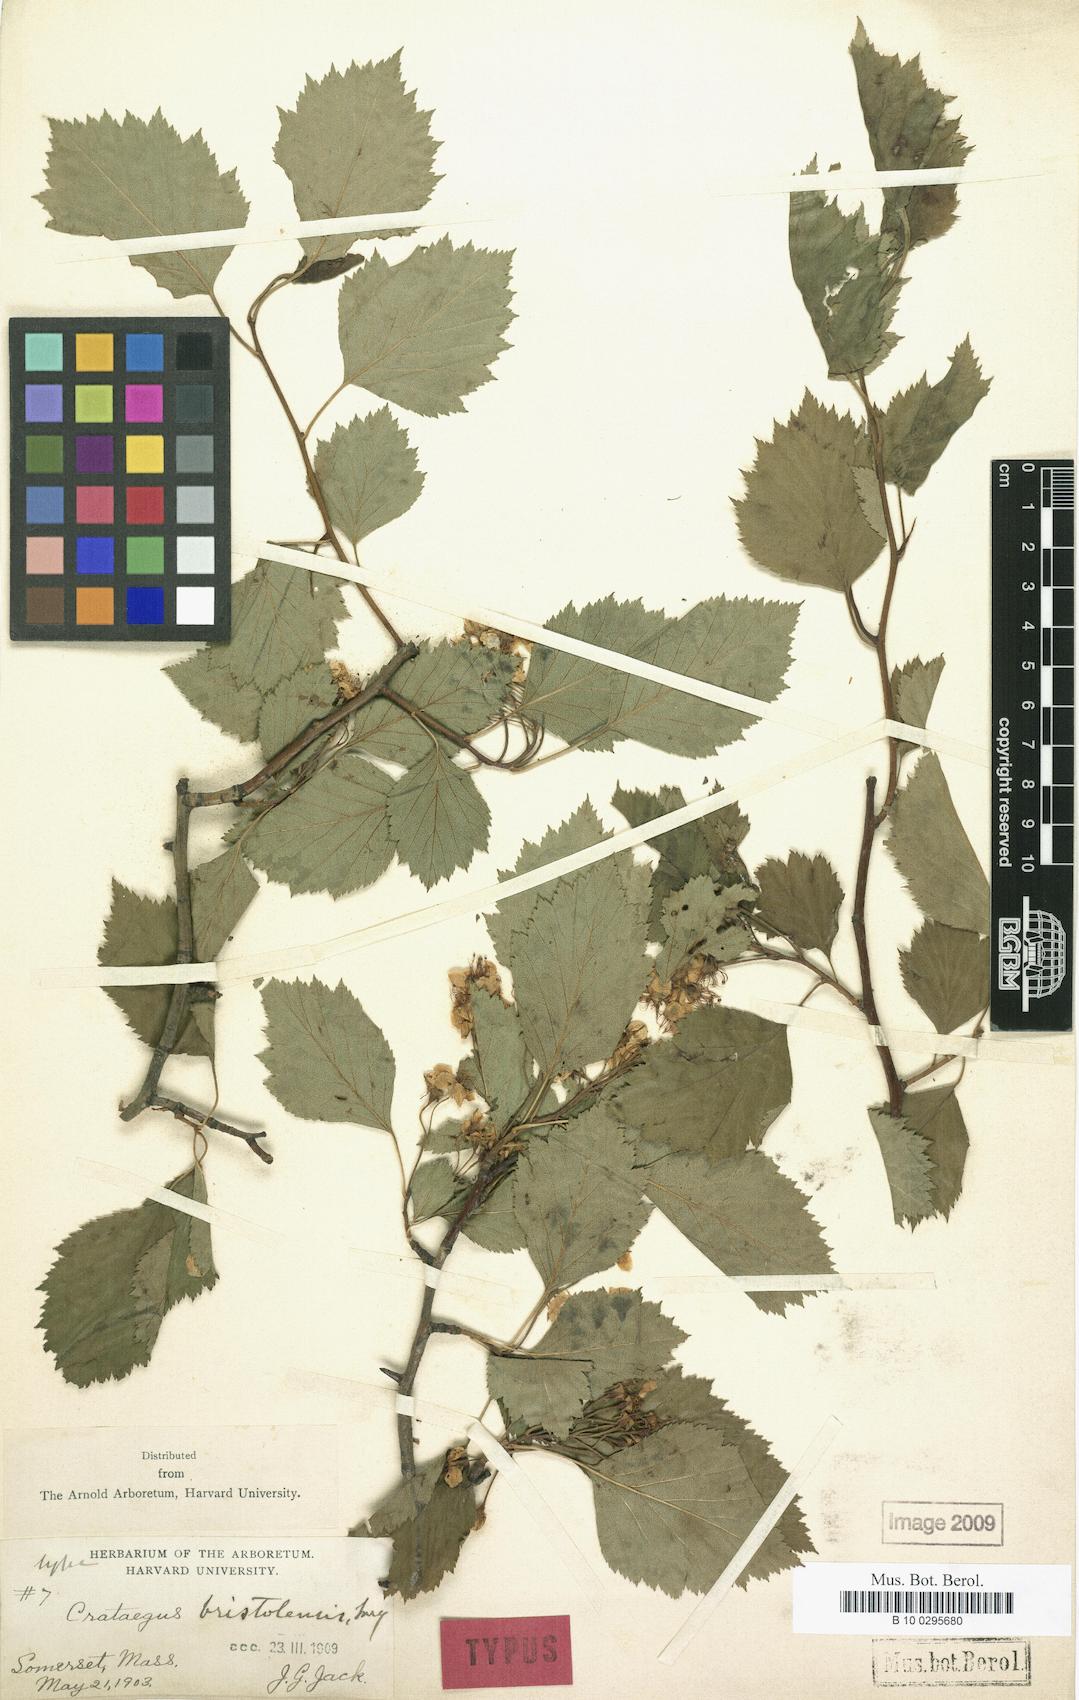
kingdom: Plantae
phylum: Tracheophyta
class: Magnoliopsida
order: Rosales
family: Rosaceae
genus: Crataegus
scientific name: Crataegus bristolensis
